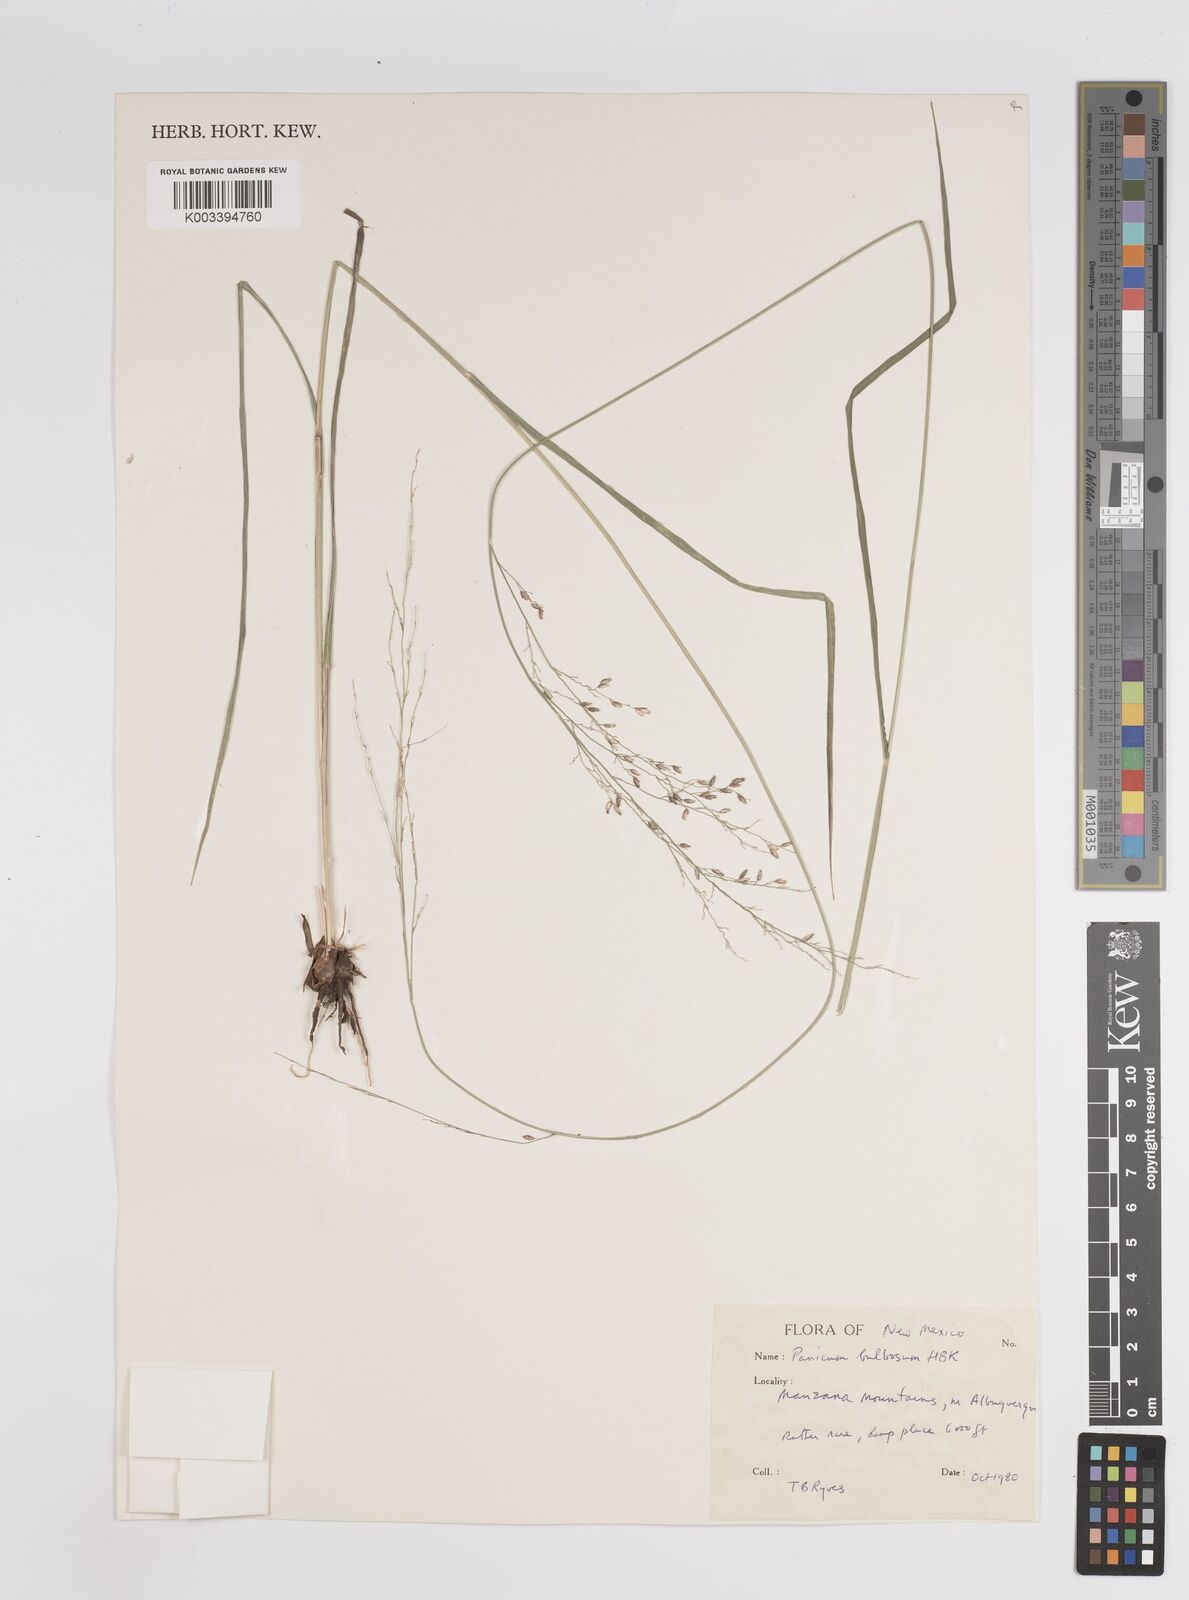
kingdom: Plantae
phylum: Tracheophyta
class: Liliopsida
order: Poales
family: Poaceae
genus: Zuloagaea
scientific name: Zuloagaea bulbosa
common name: Canyon panic grass
